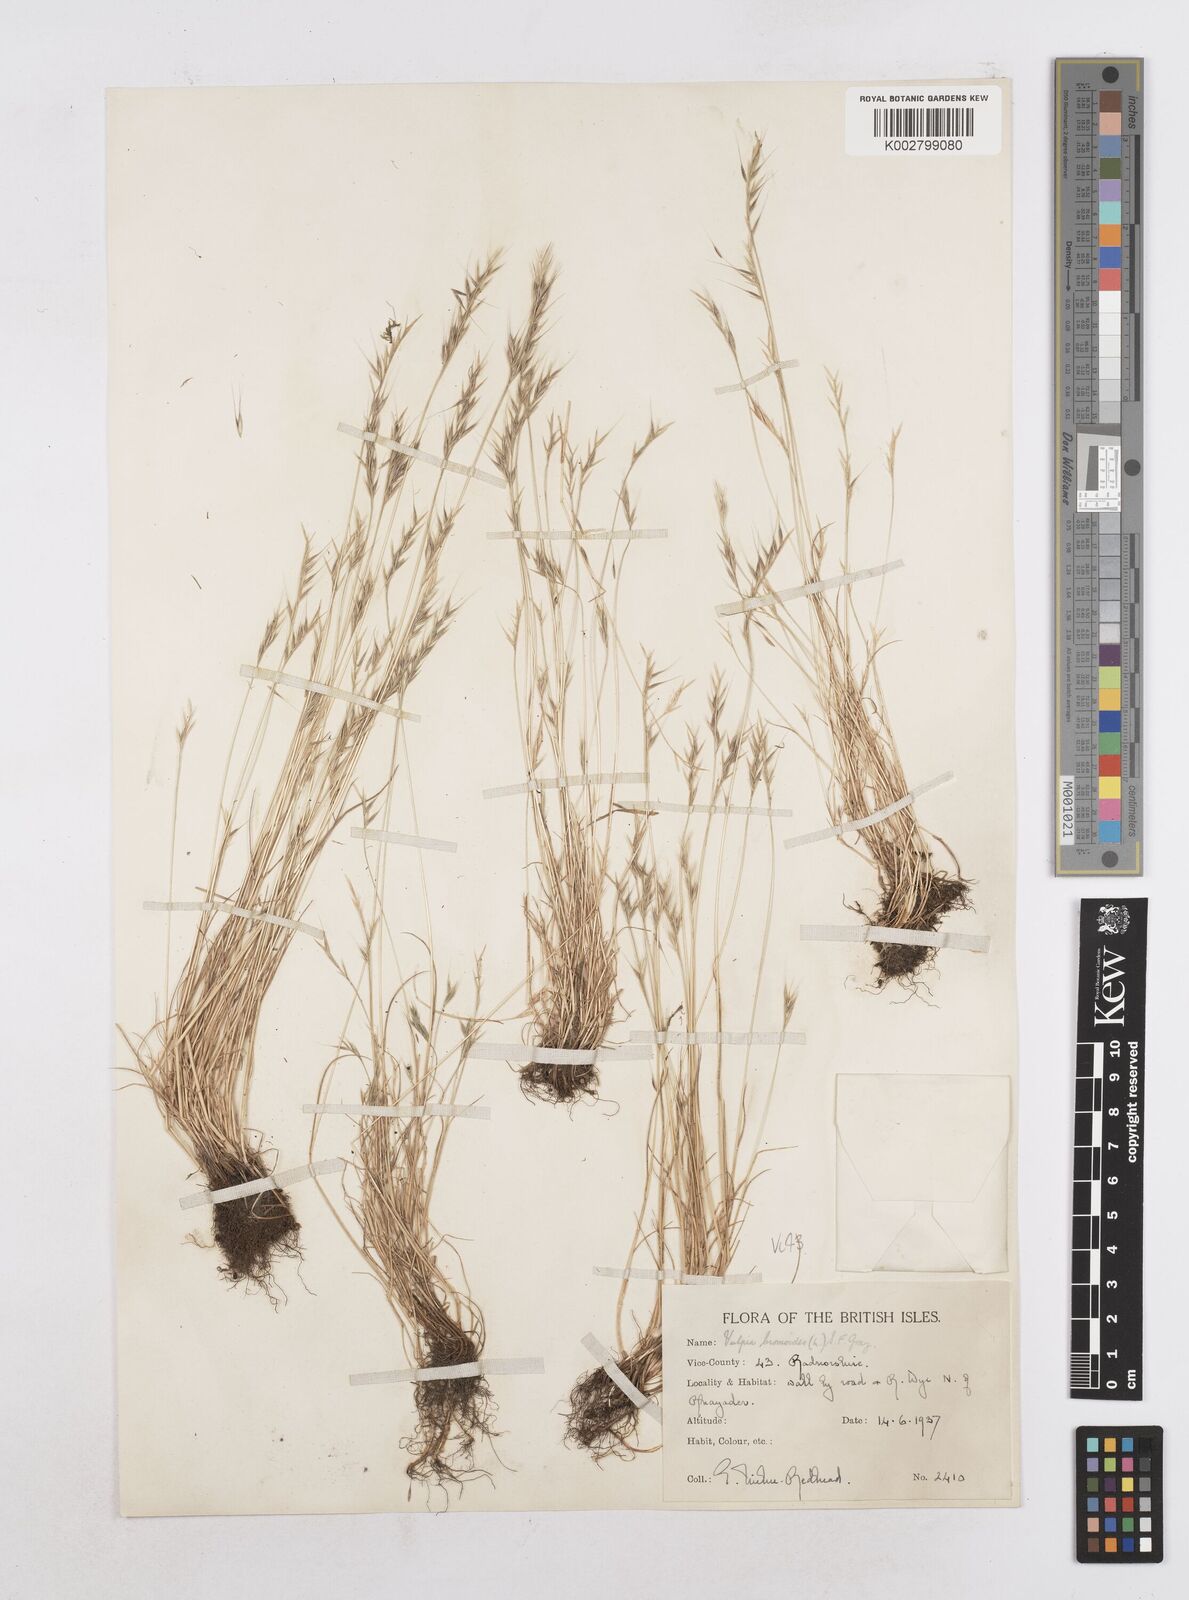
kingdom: Plantae
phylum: Tracheophyta
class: Liliopsida
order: Poales
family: Poaceae
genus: Festuca
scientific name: Festuca bromoides
